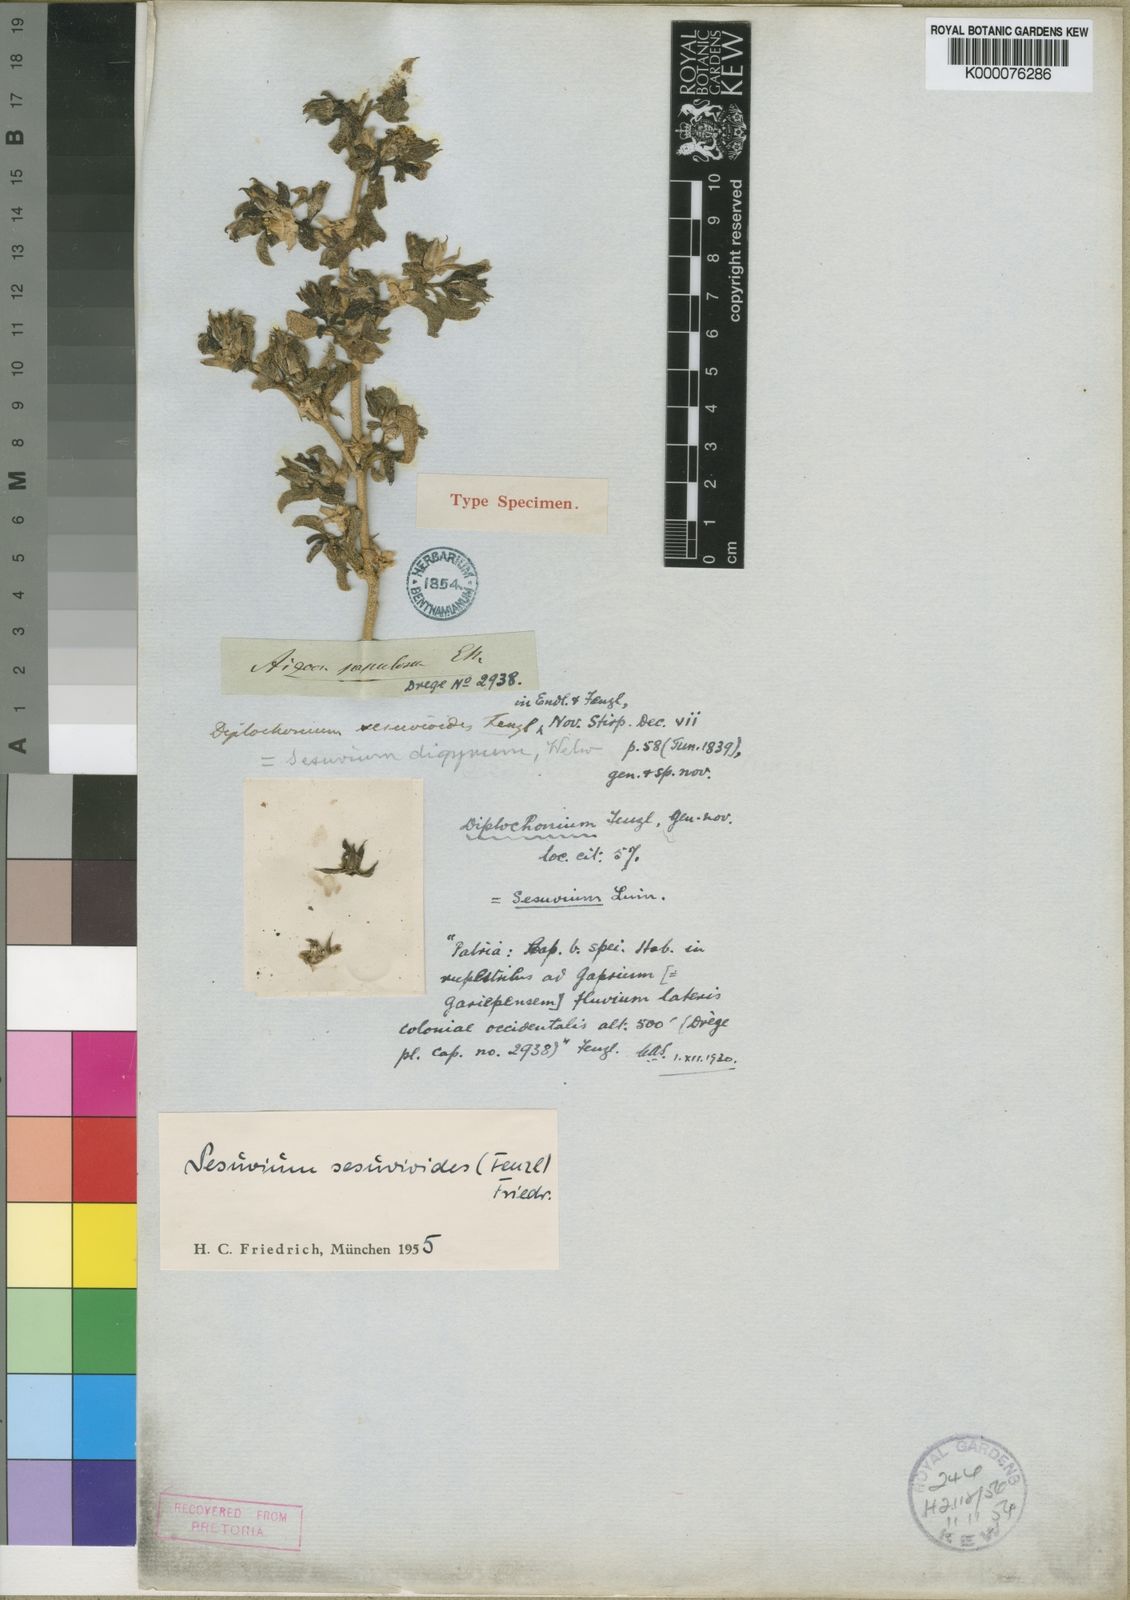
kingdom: Plantae
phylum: Tracheophyta
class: Magnoliopsida
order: Caryophyllales
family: Aizoaceae
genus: Sesuvium
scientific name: Sesuvium sesuvioides
